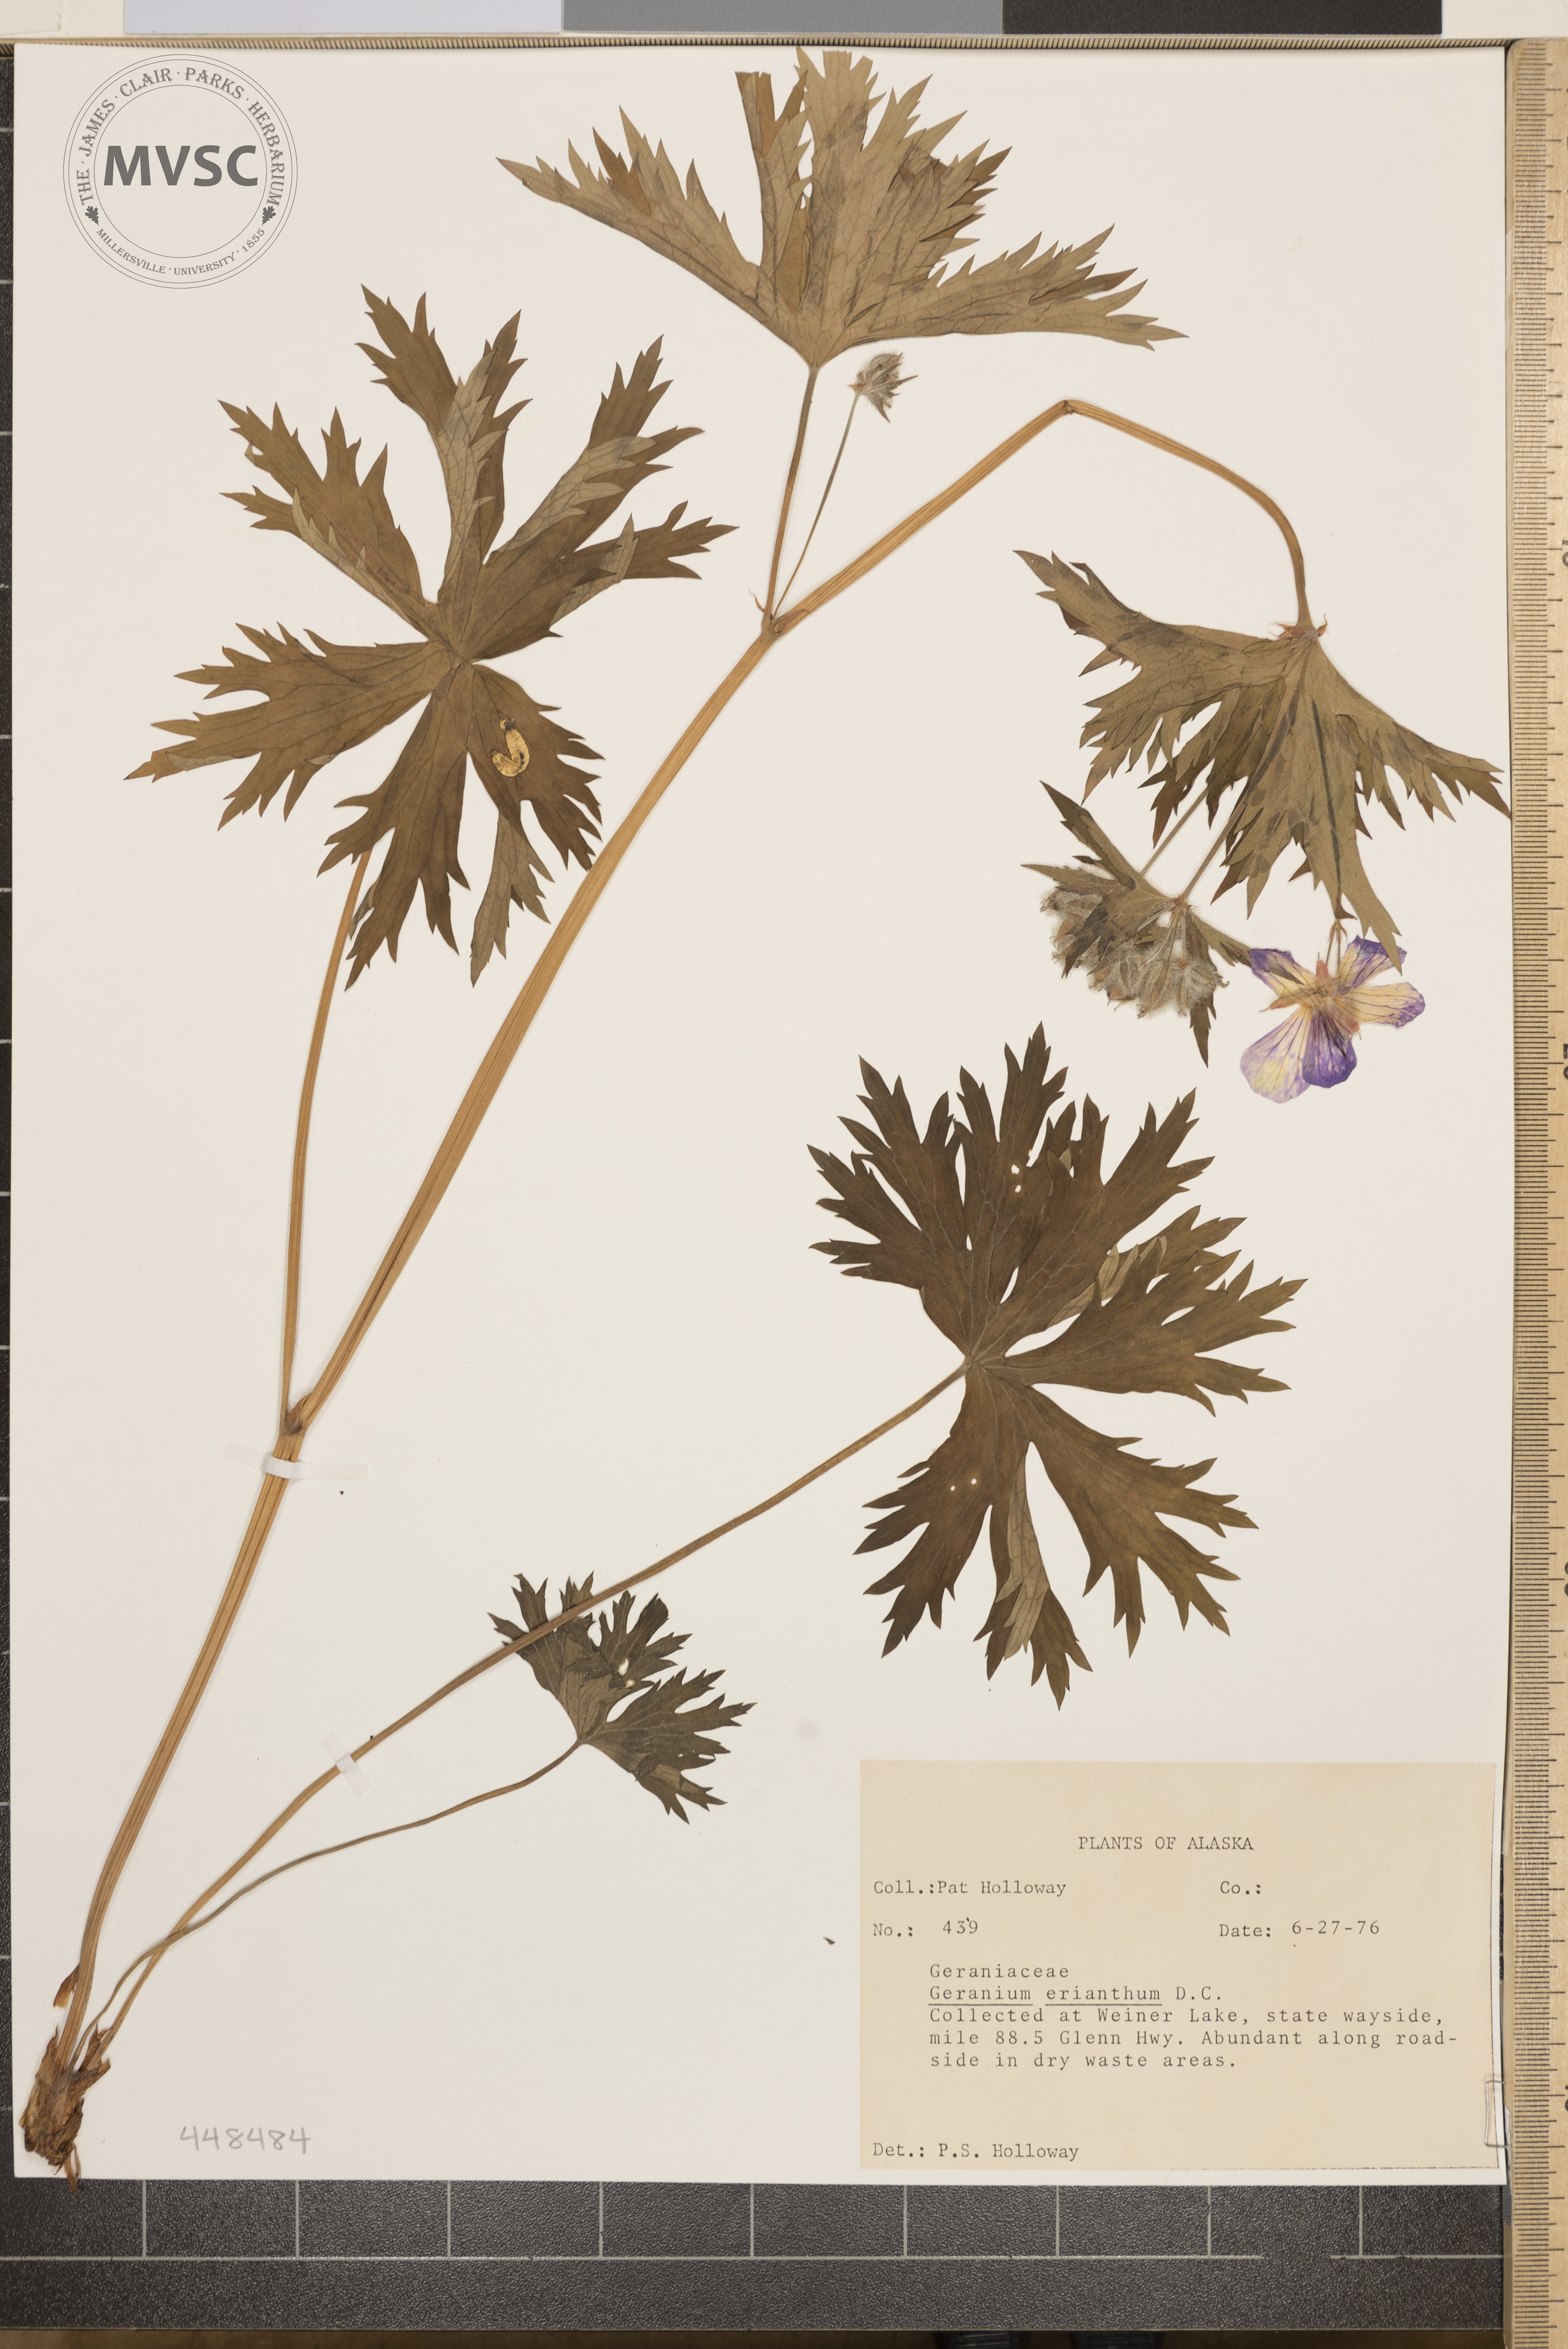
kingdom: Plantae
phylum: Tracheophyta
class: Magnoliopsida
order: Geraniales
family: Geraniaceae
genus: Geranium
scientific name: Geranium erianthum
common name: Northern crane's-bill
